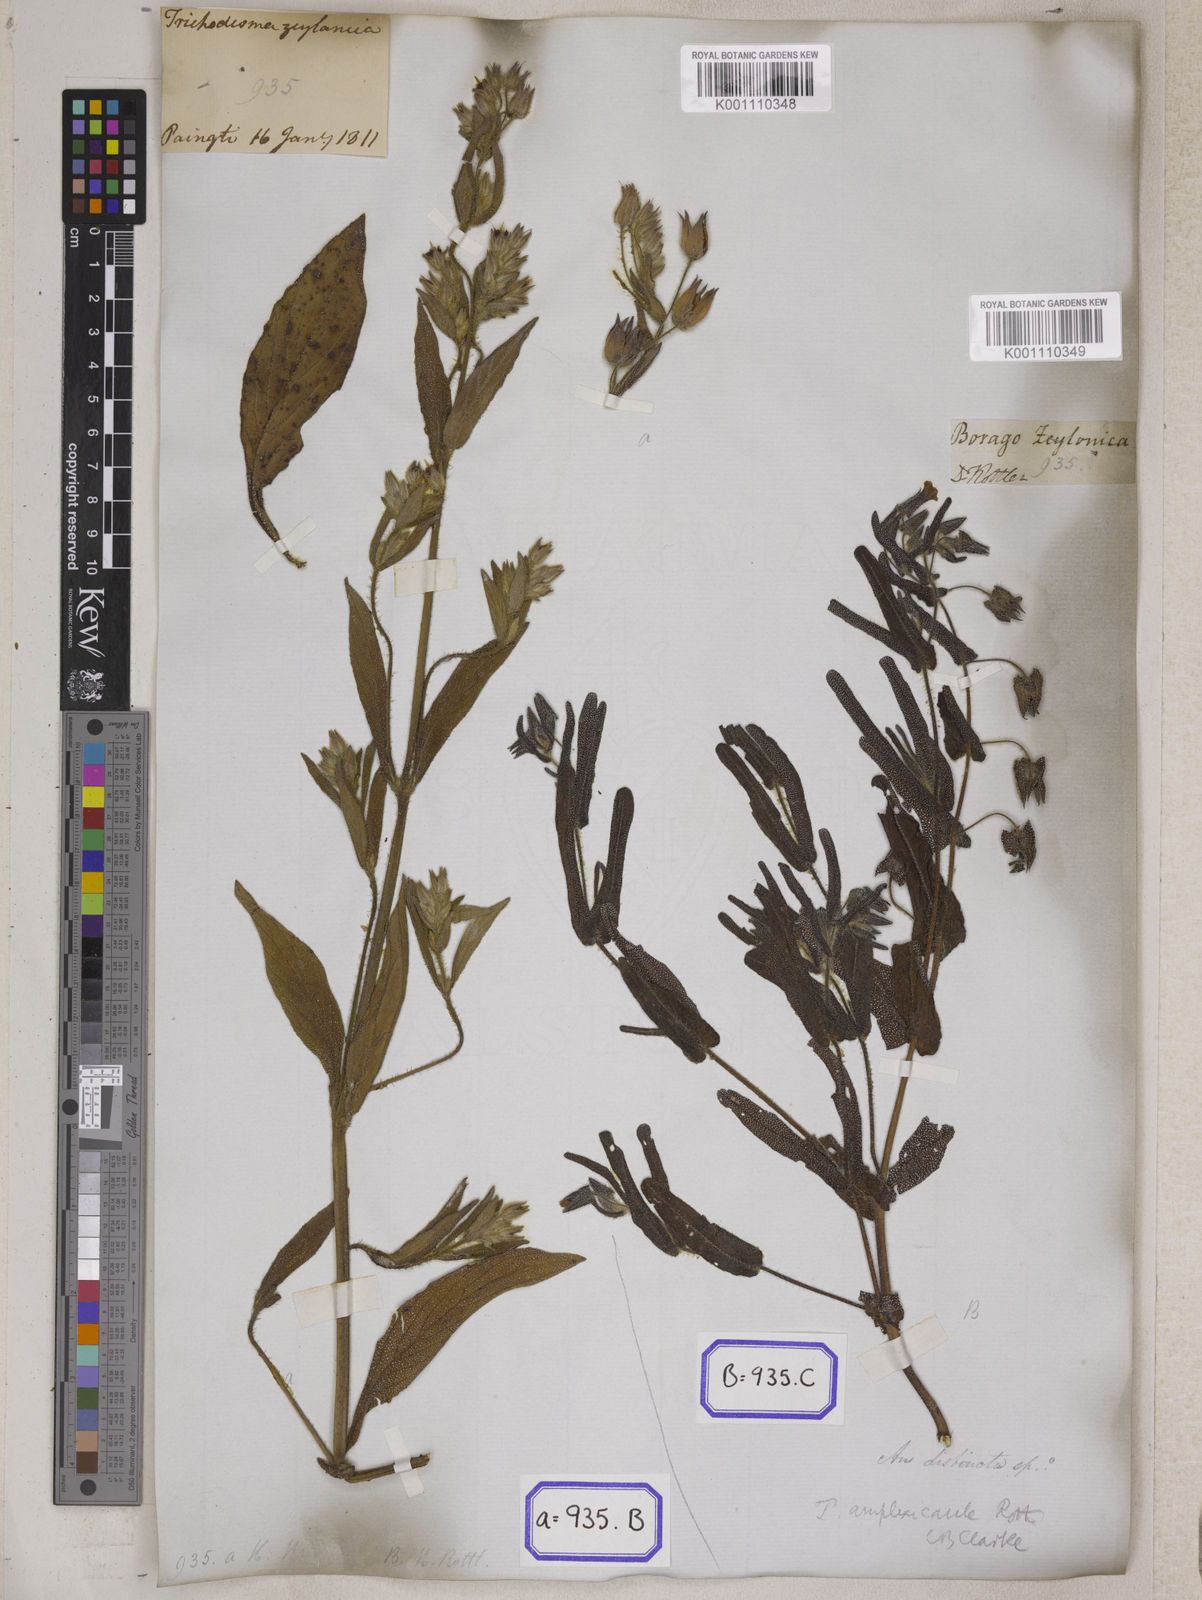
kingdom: Plantae
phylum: Tracheophyta
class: Magnoliopsida
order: Boraginales
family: Boraginaceae
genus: Trichodesma
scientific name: Trichodesma zeylanicum
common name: Camelbush
